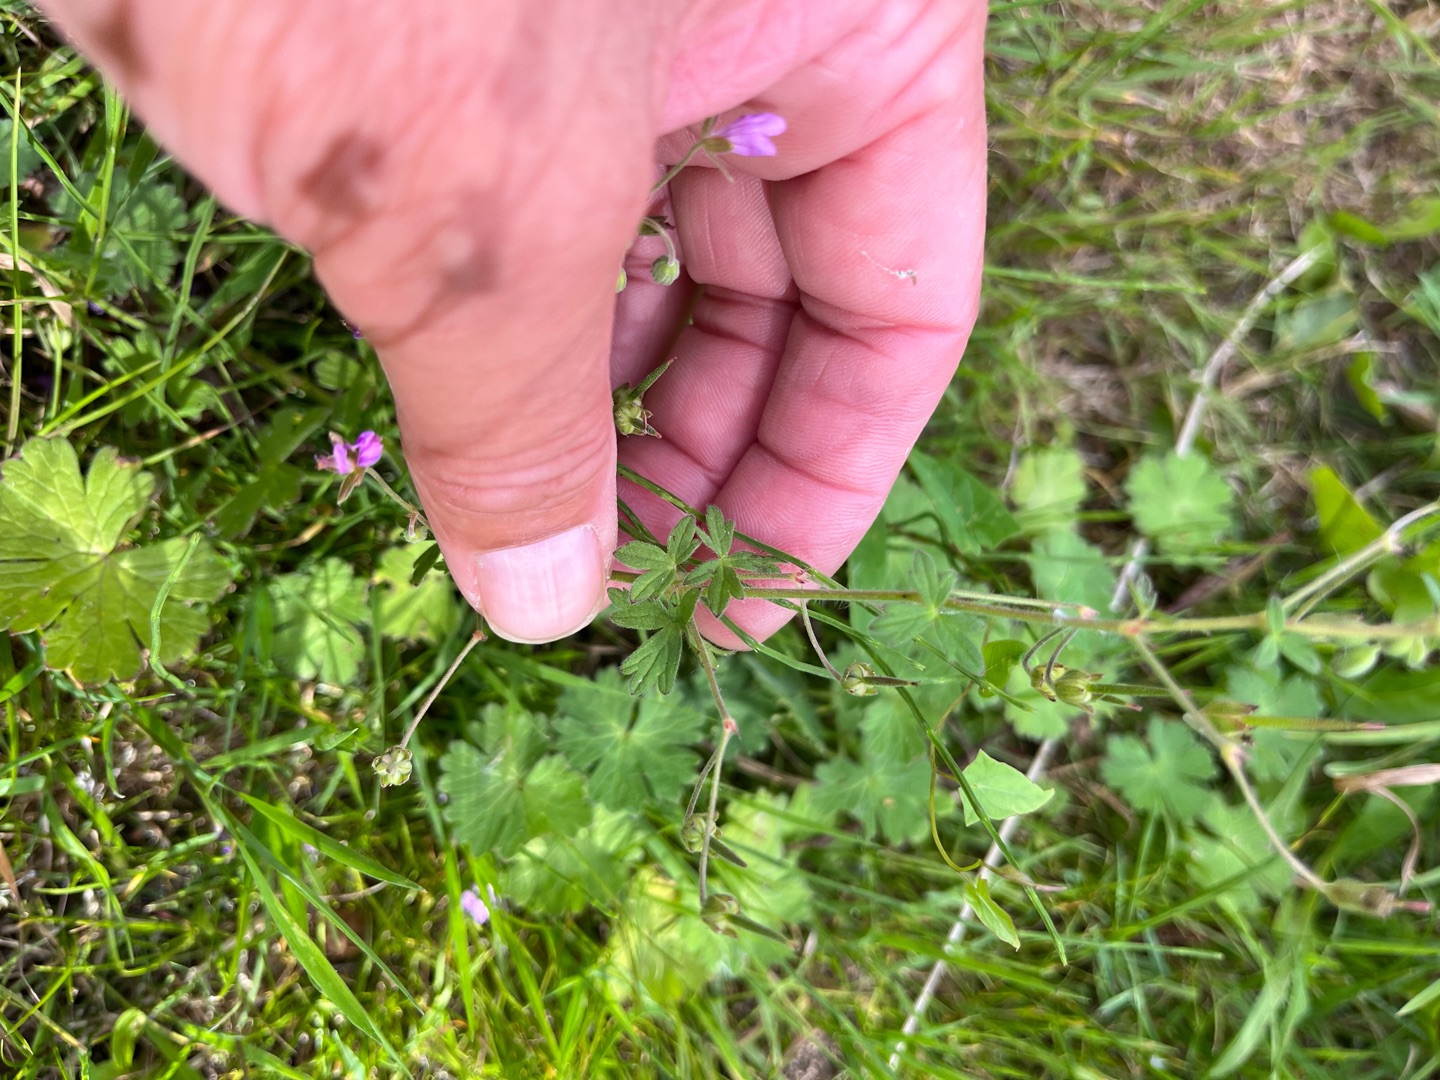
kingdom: Plantae
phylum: Tracheophyta
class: Magnoliopsida
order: Geraniales
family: Geraniaceae
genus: Geranium
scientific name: Geranium pyrenaicum
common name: Pyrenæisk storkenæb
